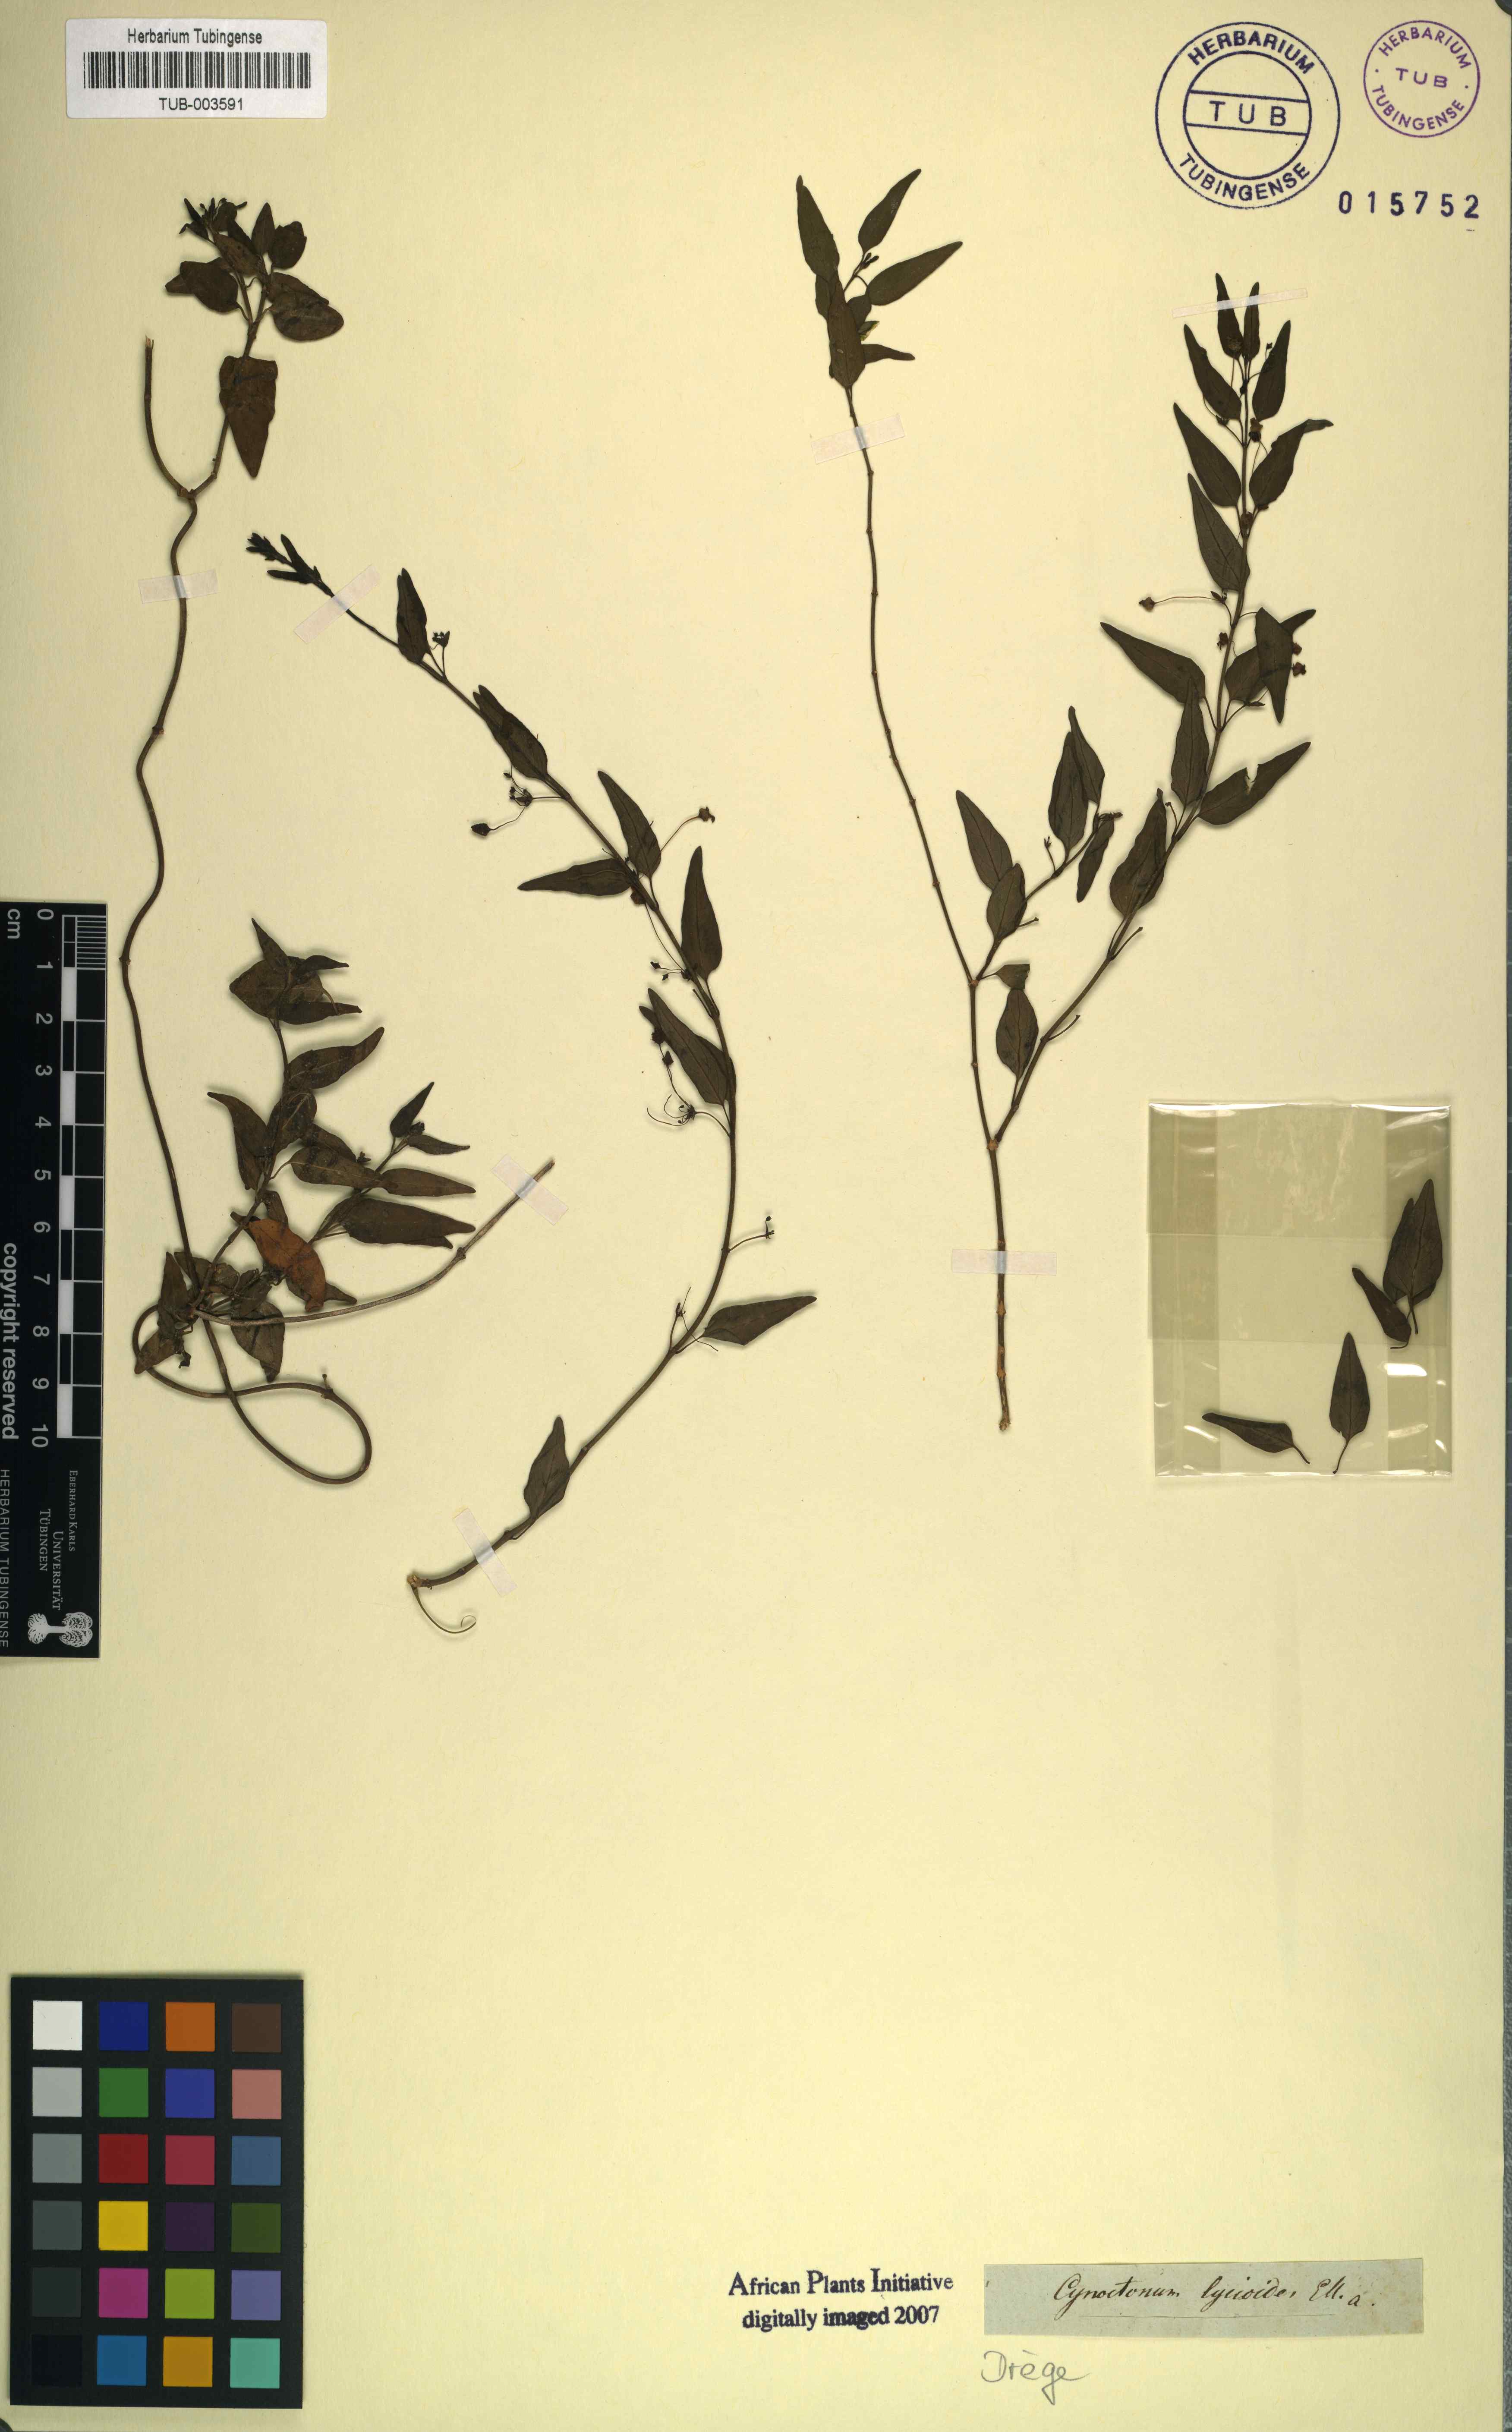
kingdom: Plantae
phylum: Tracheophyta
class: Magnoliopsida
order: Gentianales
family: Apocynaceae
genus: Vincetoxicum
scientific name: Vincetoxicum lycioides
